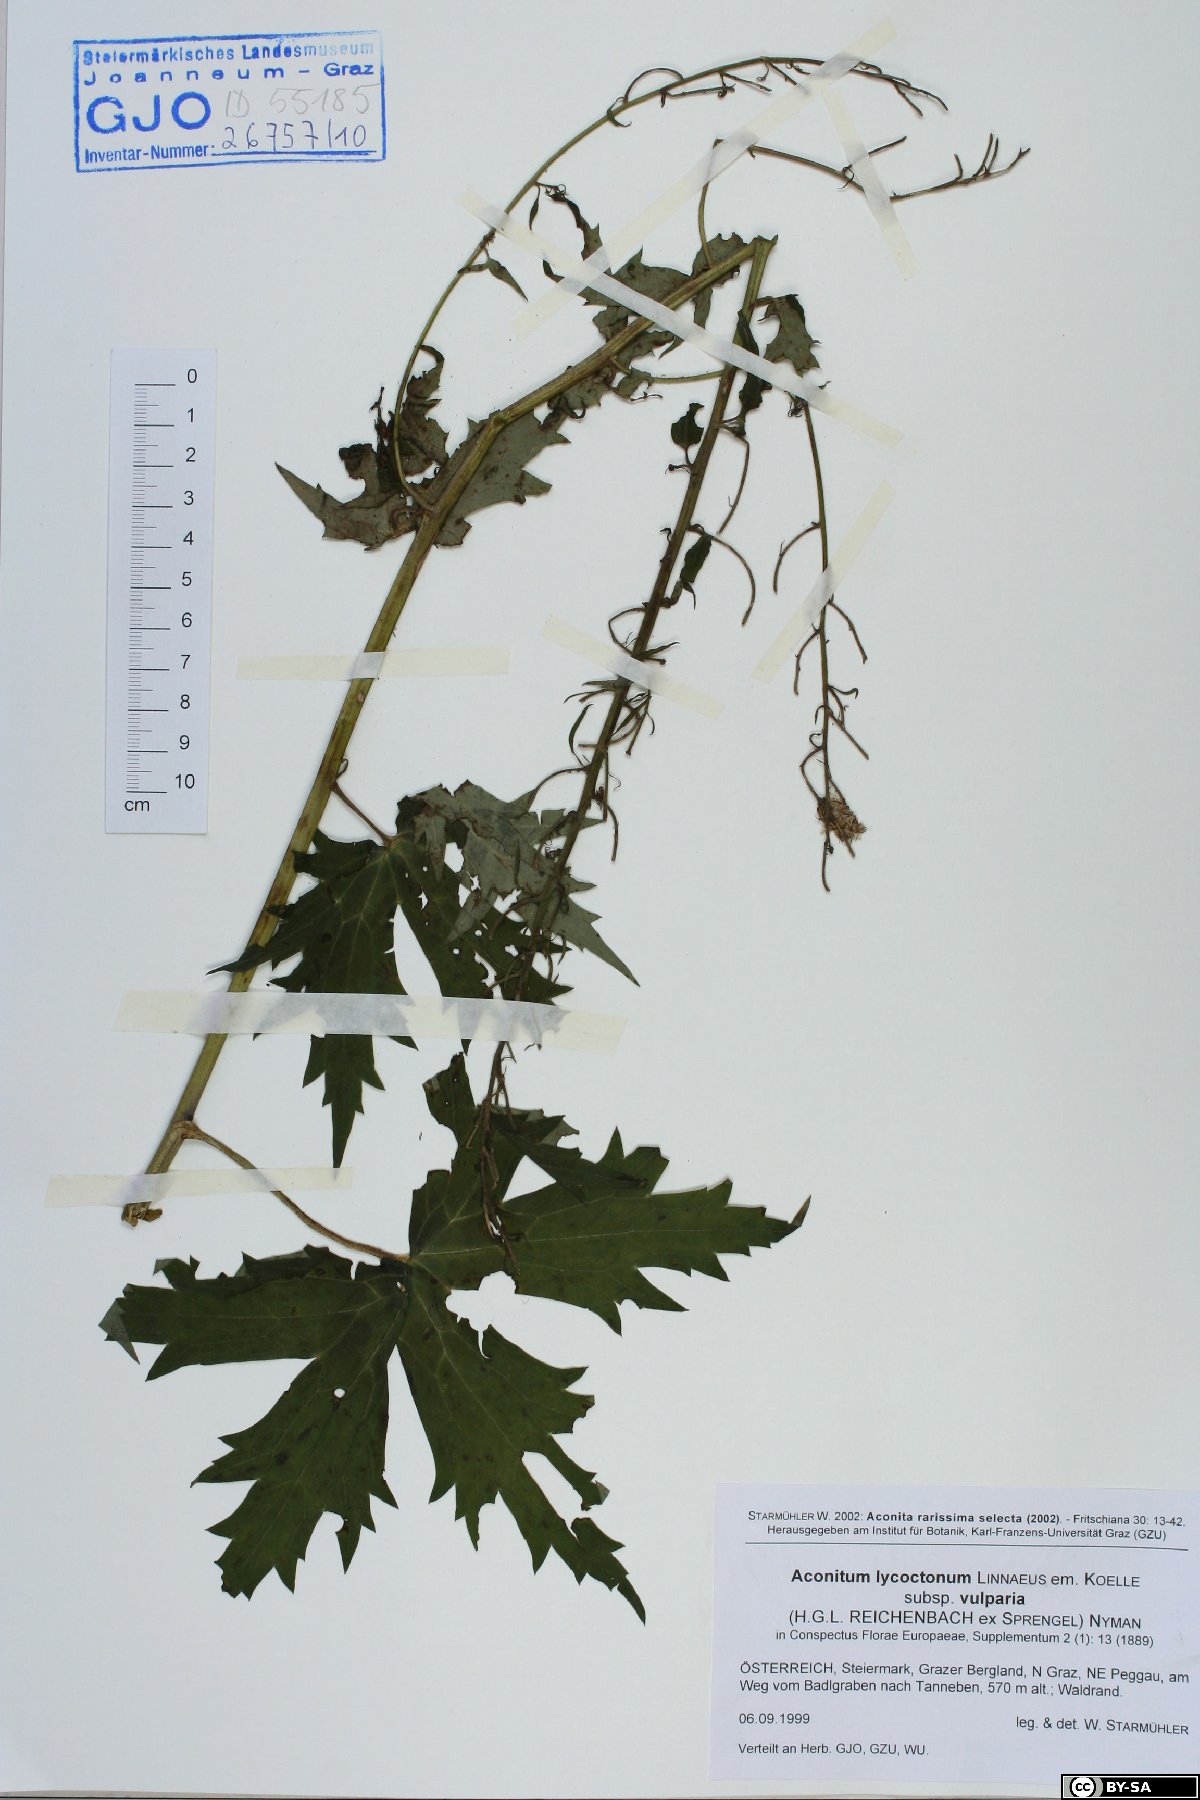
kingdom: Plantae
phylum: Tracheophyta
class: Magnoliopsida
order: Ranunculales
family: Ranunculaceae
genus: Aconitum
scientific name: Aconitum lycoctonum
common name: Wolf's-bane
